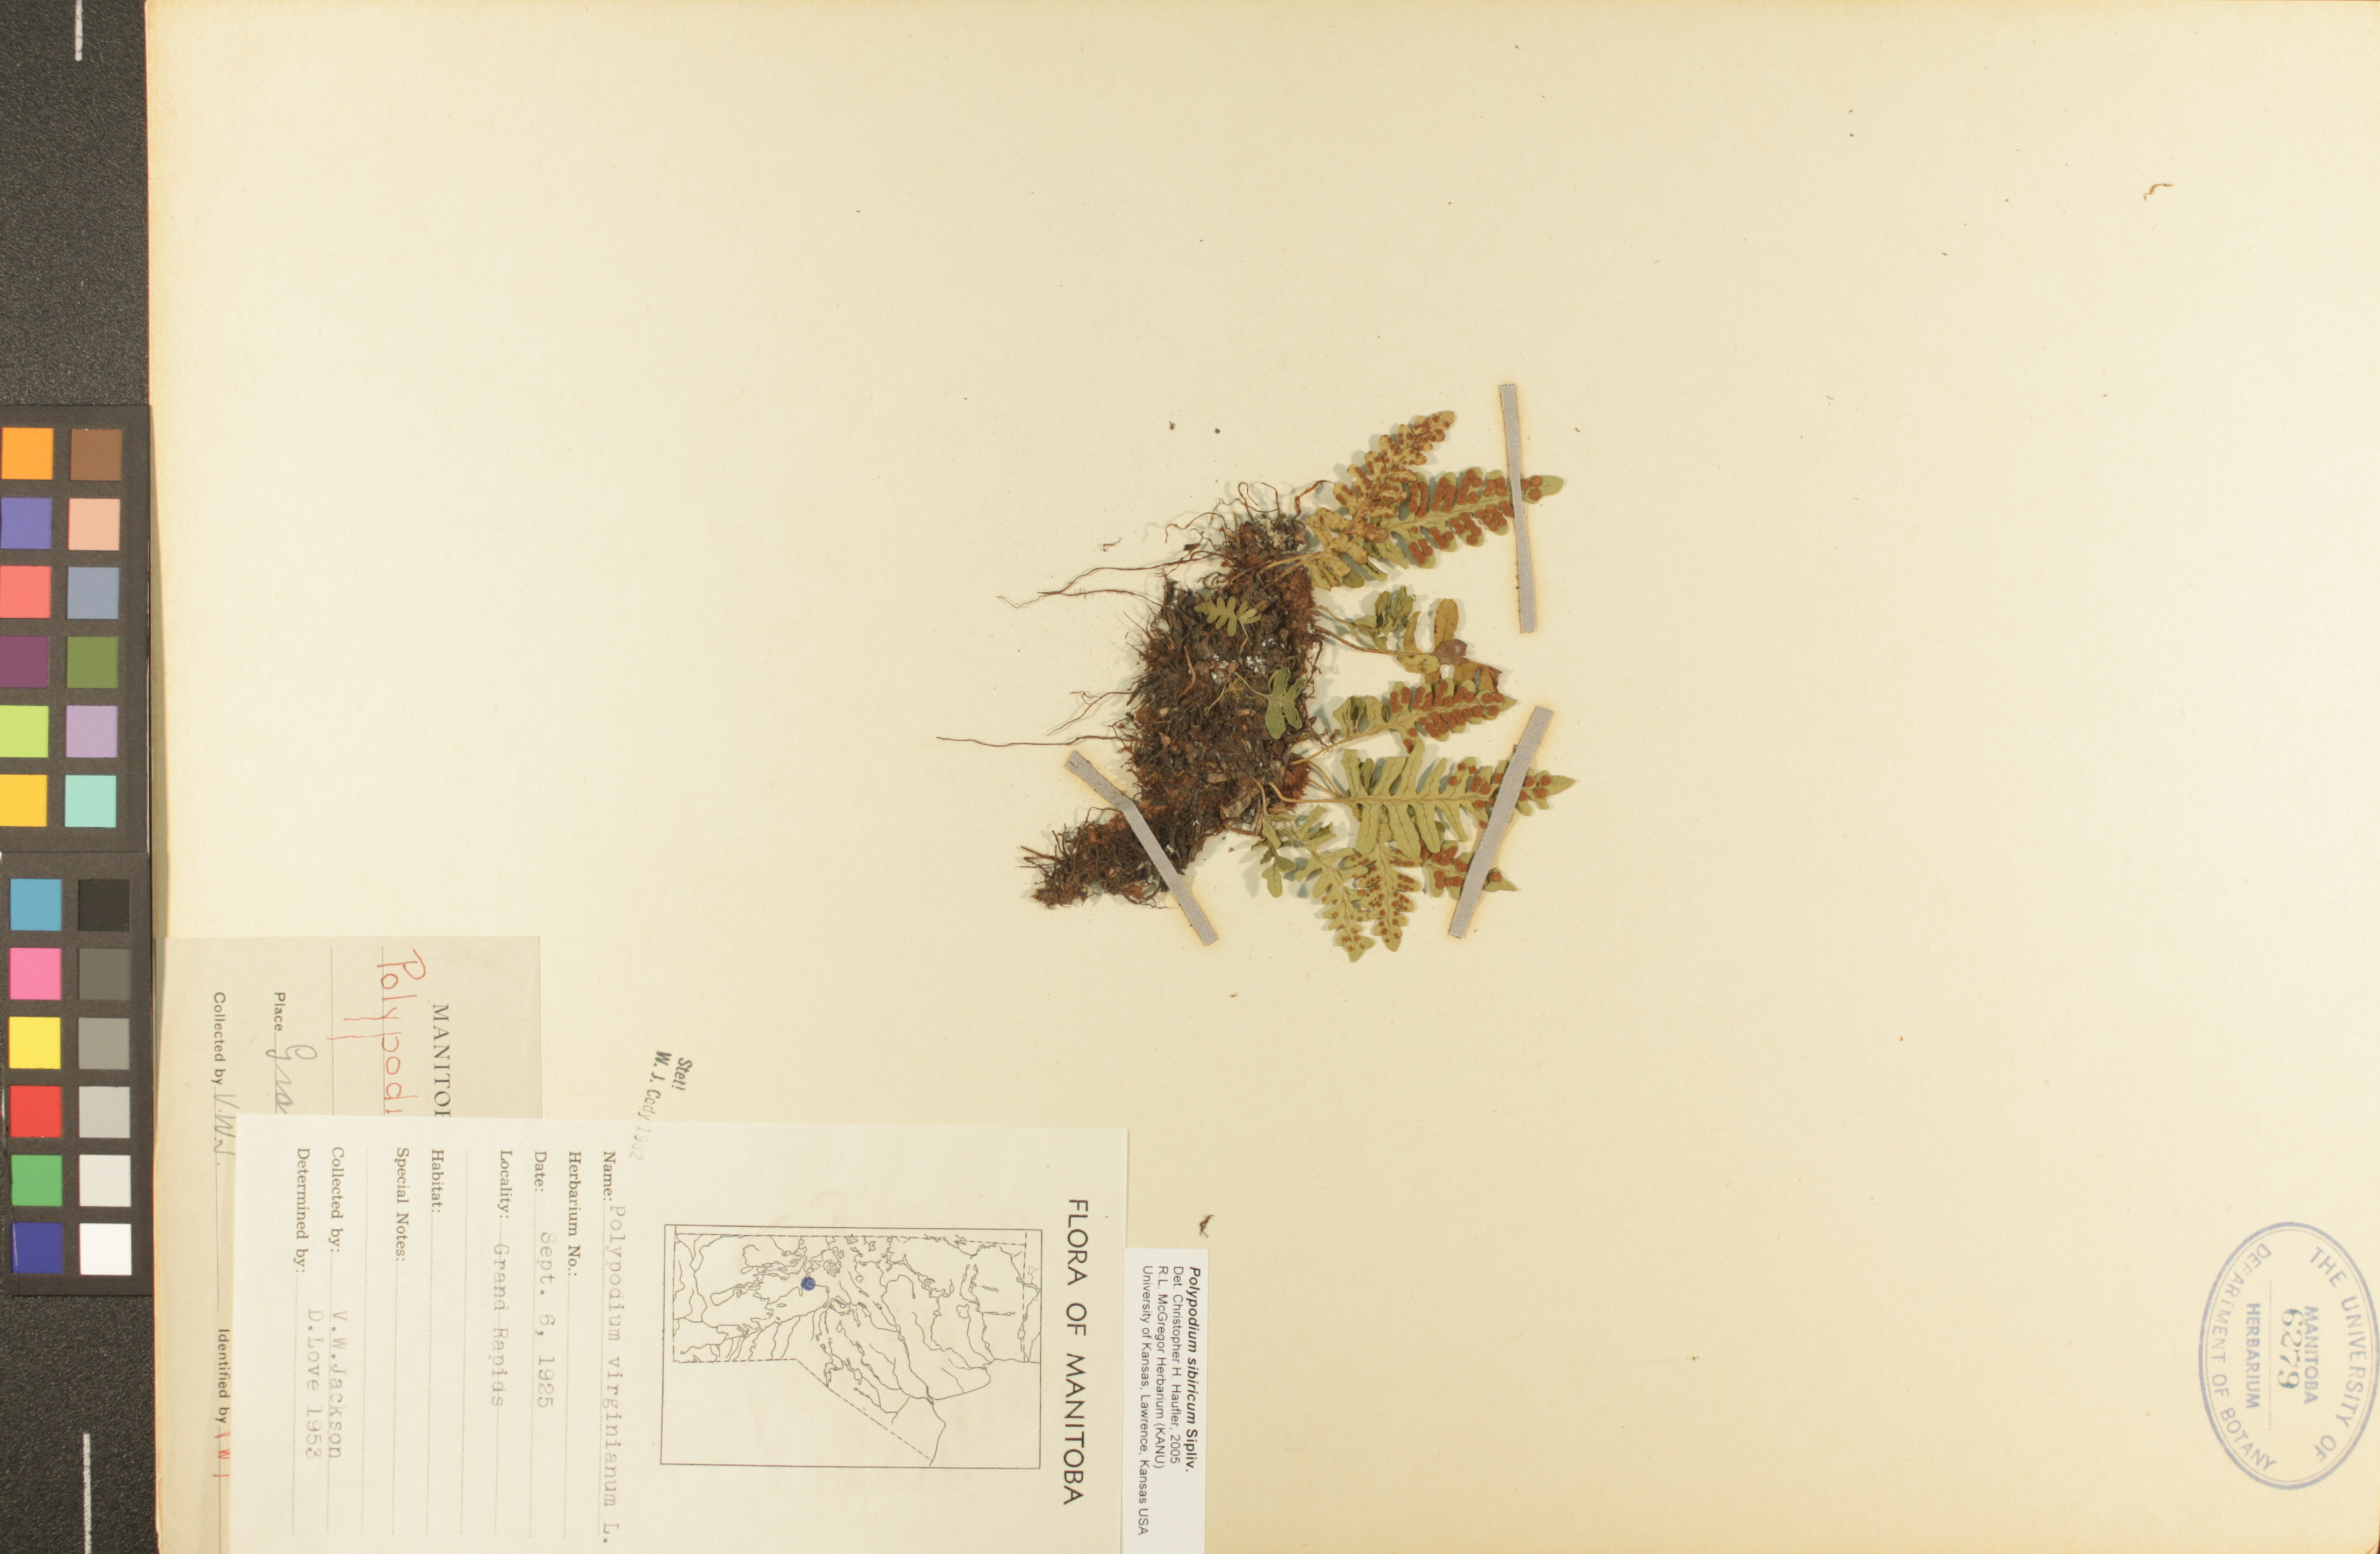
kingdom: Plantae
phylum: Tracheophyta
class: Polypodiopsida
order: Polypodiales
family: Polypodiaceae
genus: Polypodium
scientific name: Polypodium sibiricum
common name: Siberian polypody
